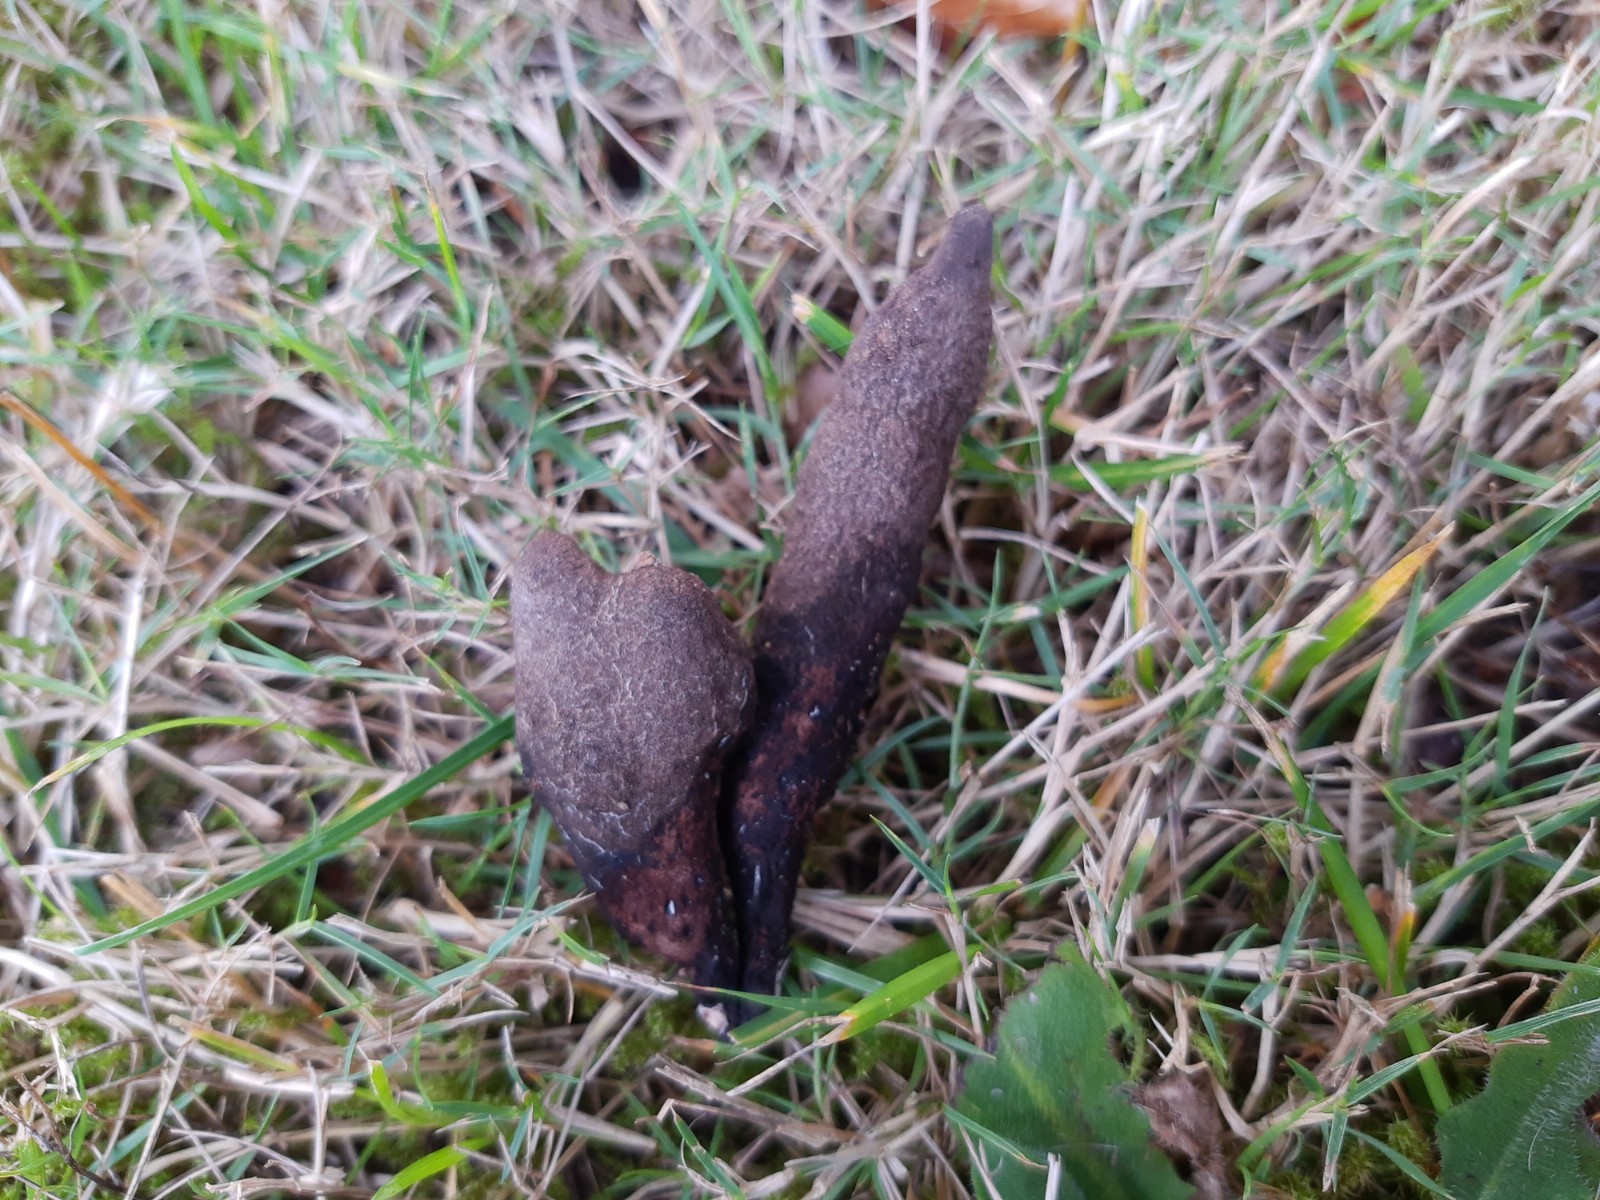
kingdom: Fungi
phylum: Ascomycota
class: Sordariomycetes
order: Xylariales
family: Xylariaceae
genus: Xylaria
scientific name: Xylaria polymorpha
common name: kølle-stødsvamp
